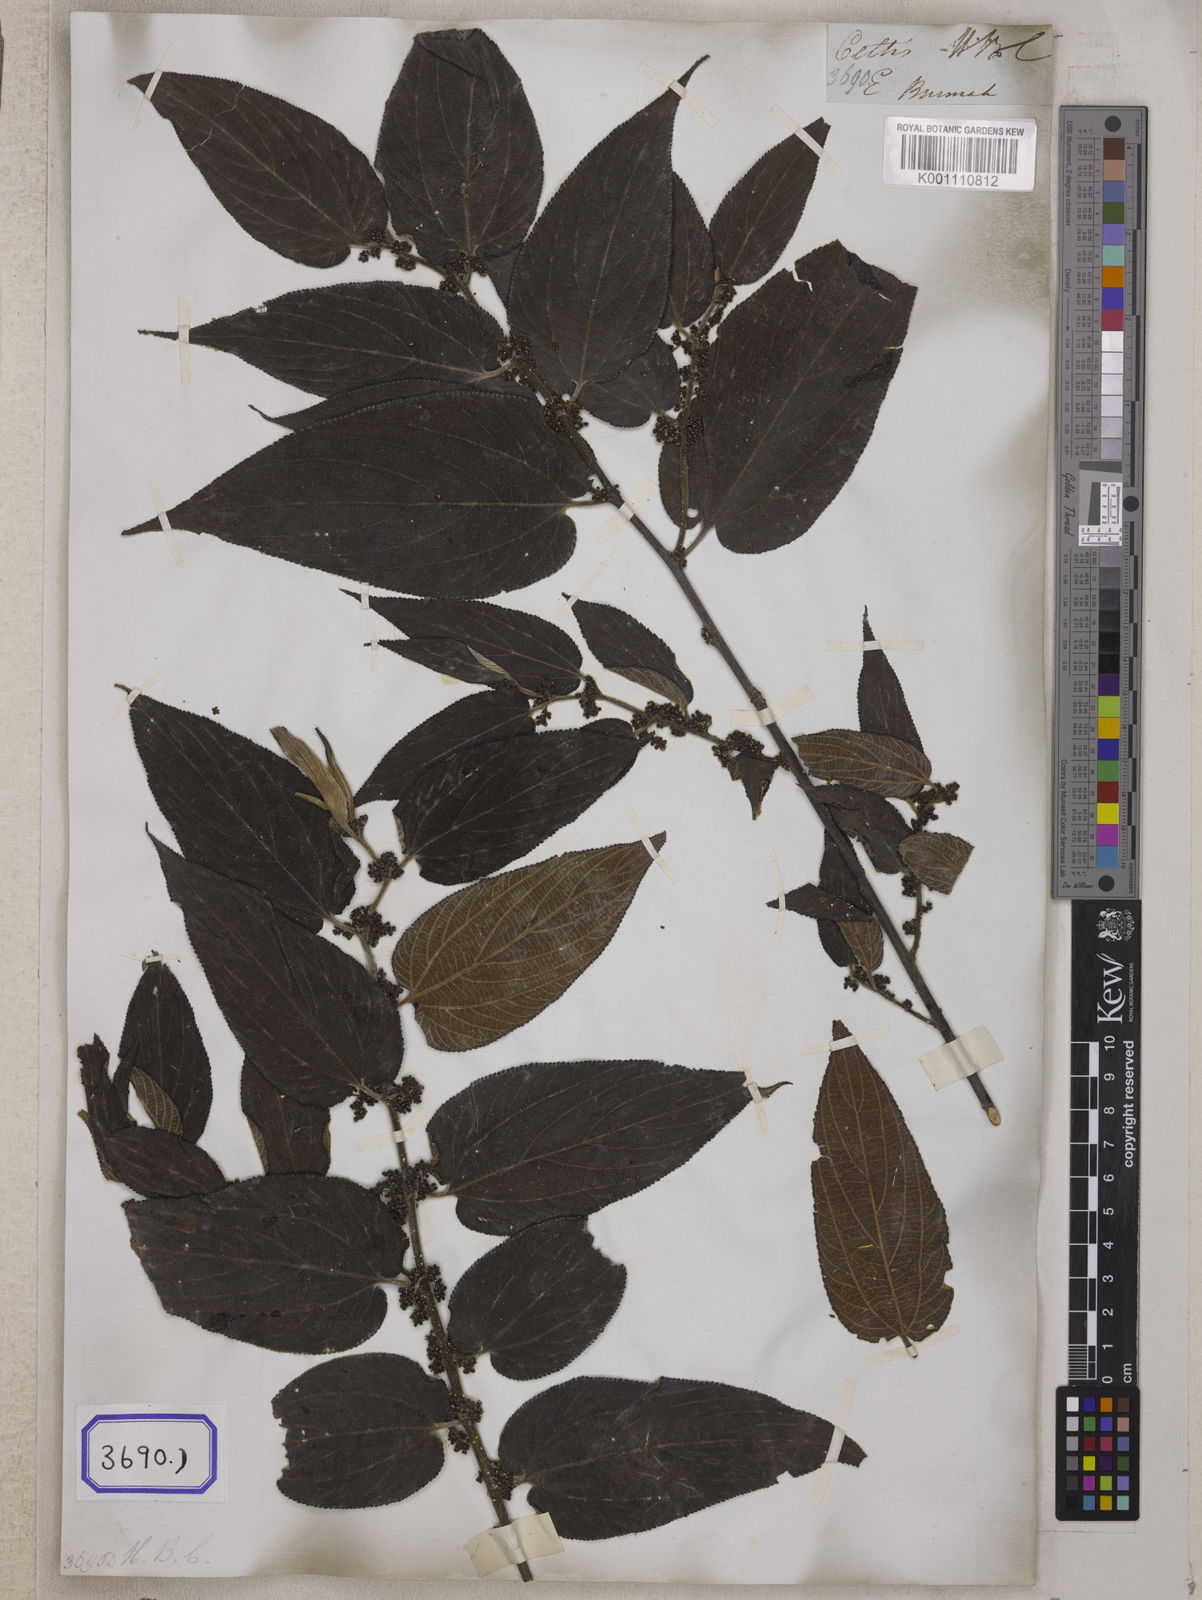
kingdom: Plantae
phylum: Tracheophyta
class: Magnoliopsida
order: Rosales
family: Cannabaceae
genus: Trema
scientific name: Trema tomentosum
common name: Peach-leaf-poisonbush
